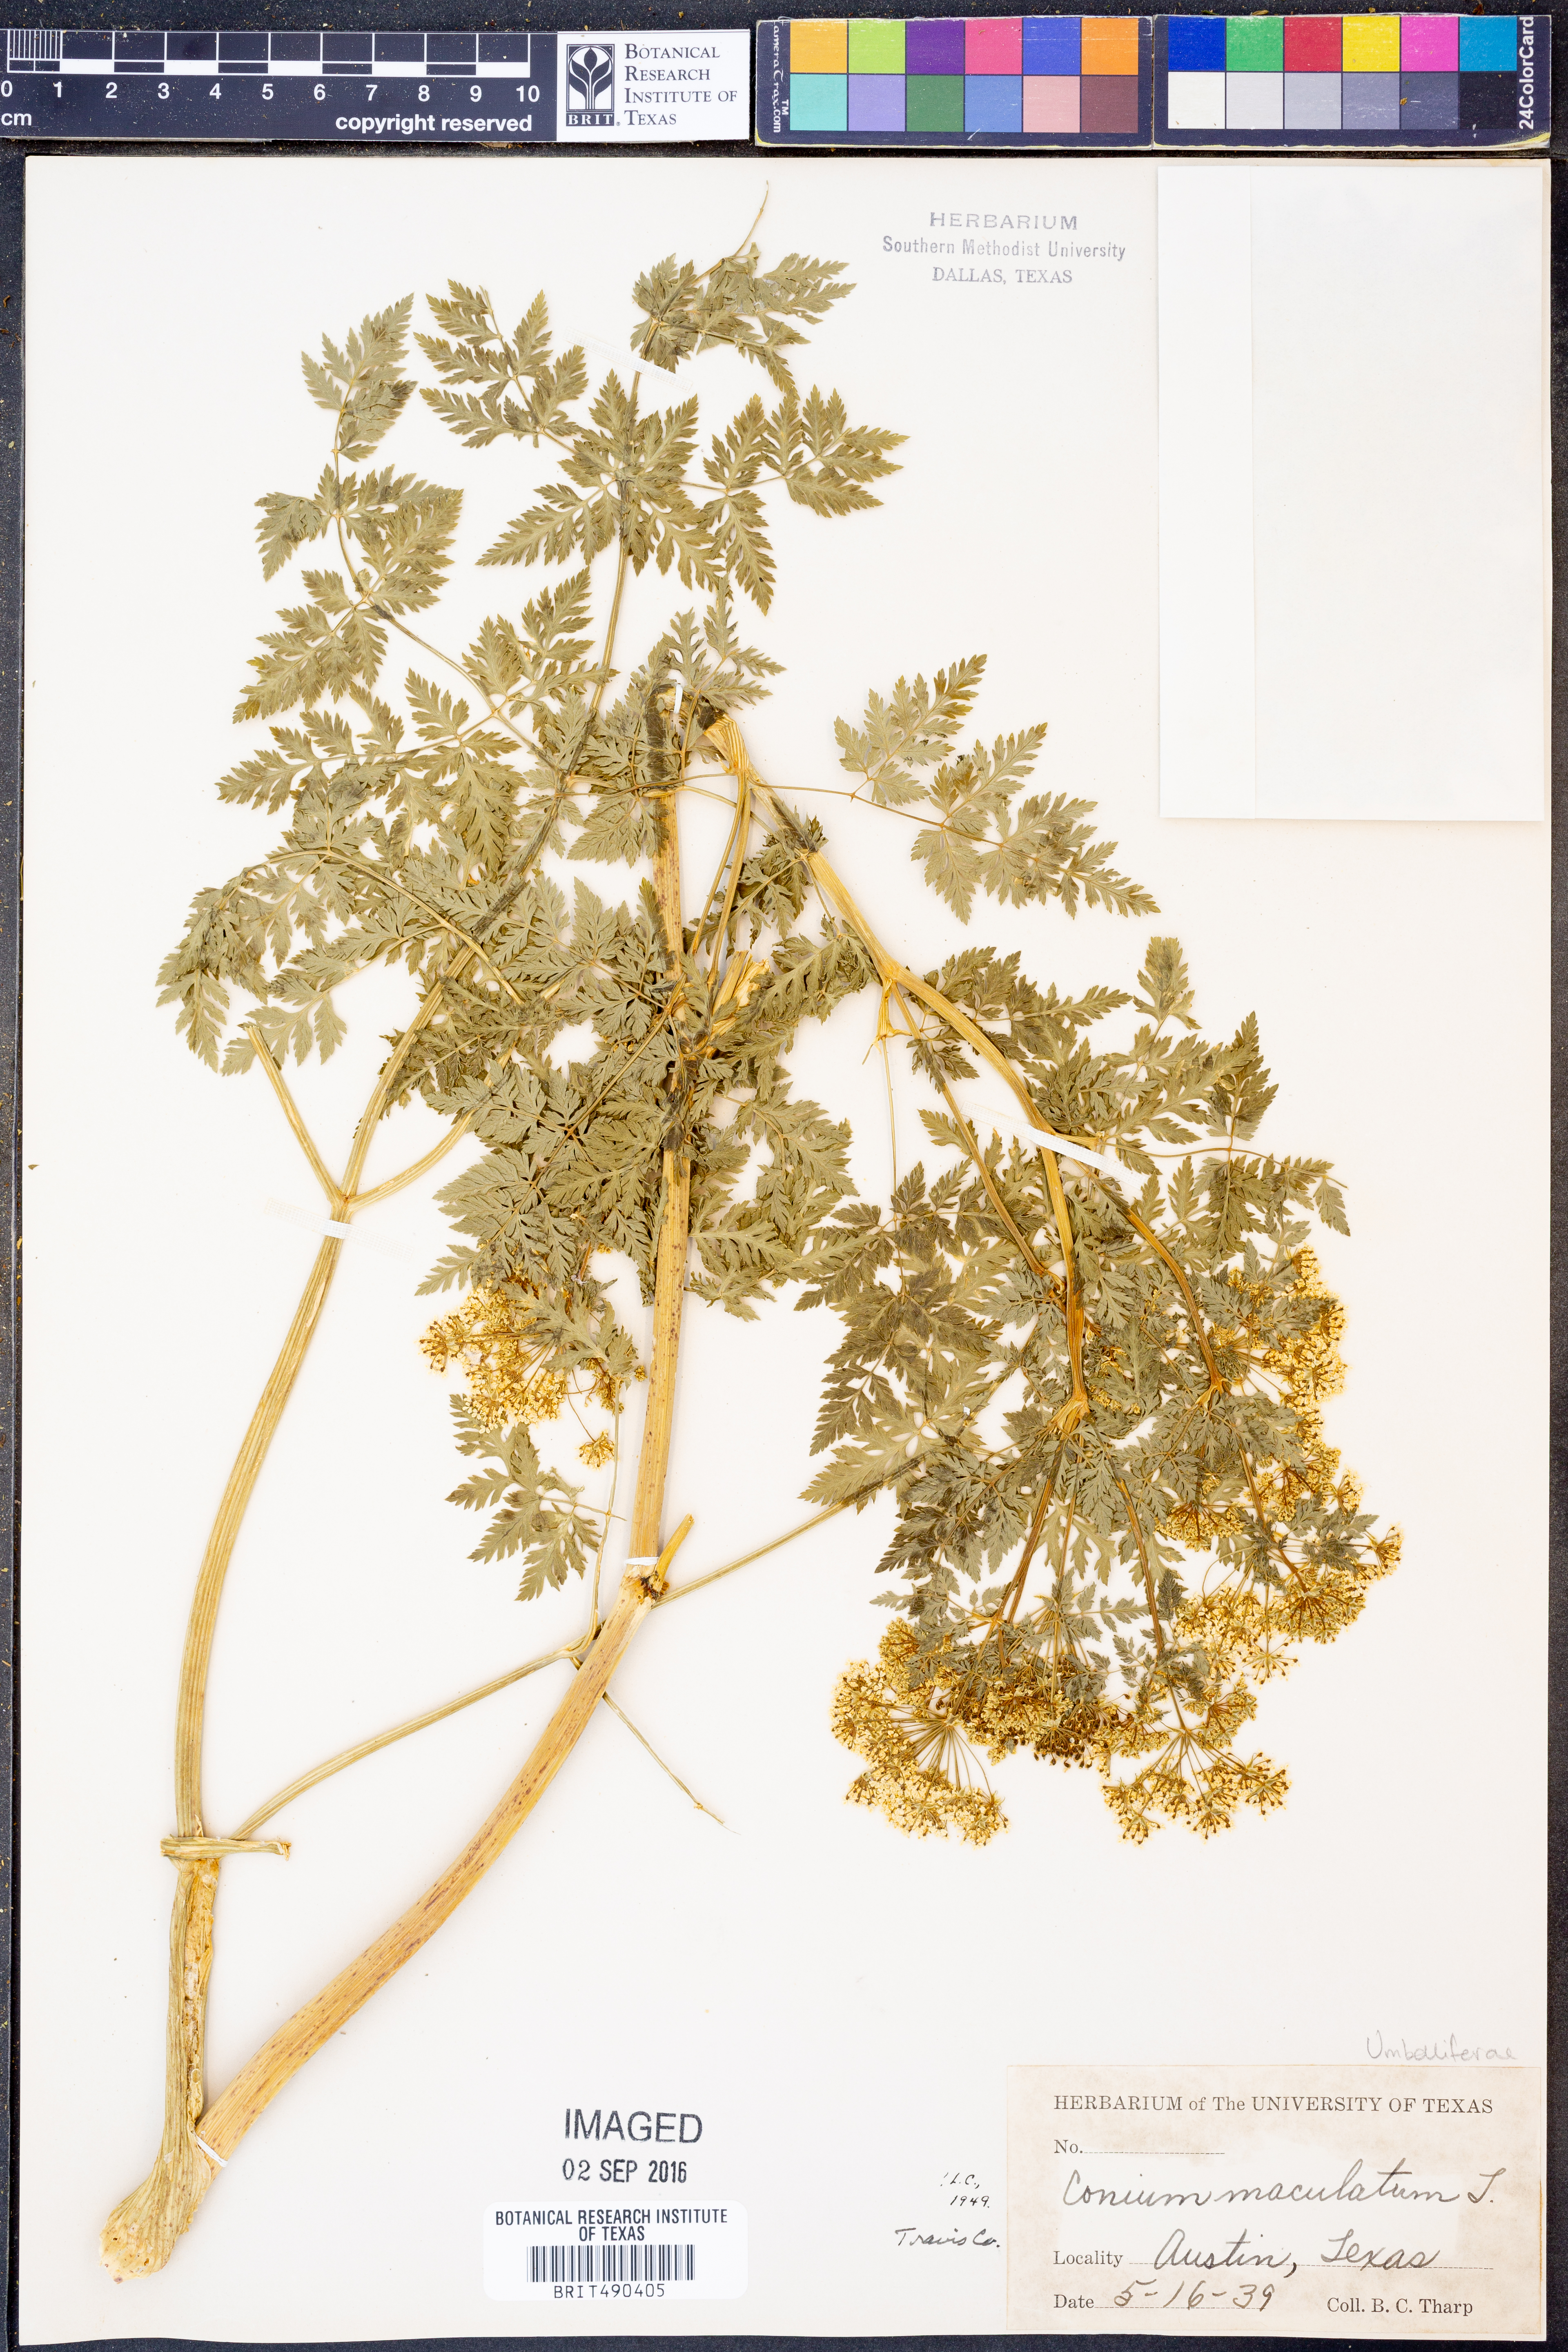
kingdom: Plantae
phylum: Tracheophyta
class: Magnoliopsida
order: Apiales
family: Apiaceae
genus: Conium
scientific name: Conium maculatum
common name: Hemlock
